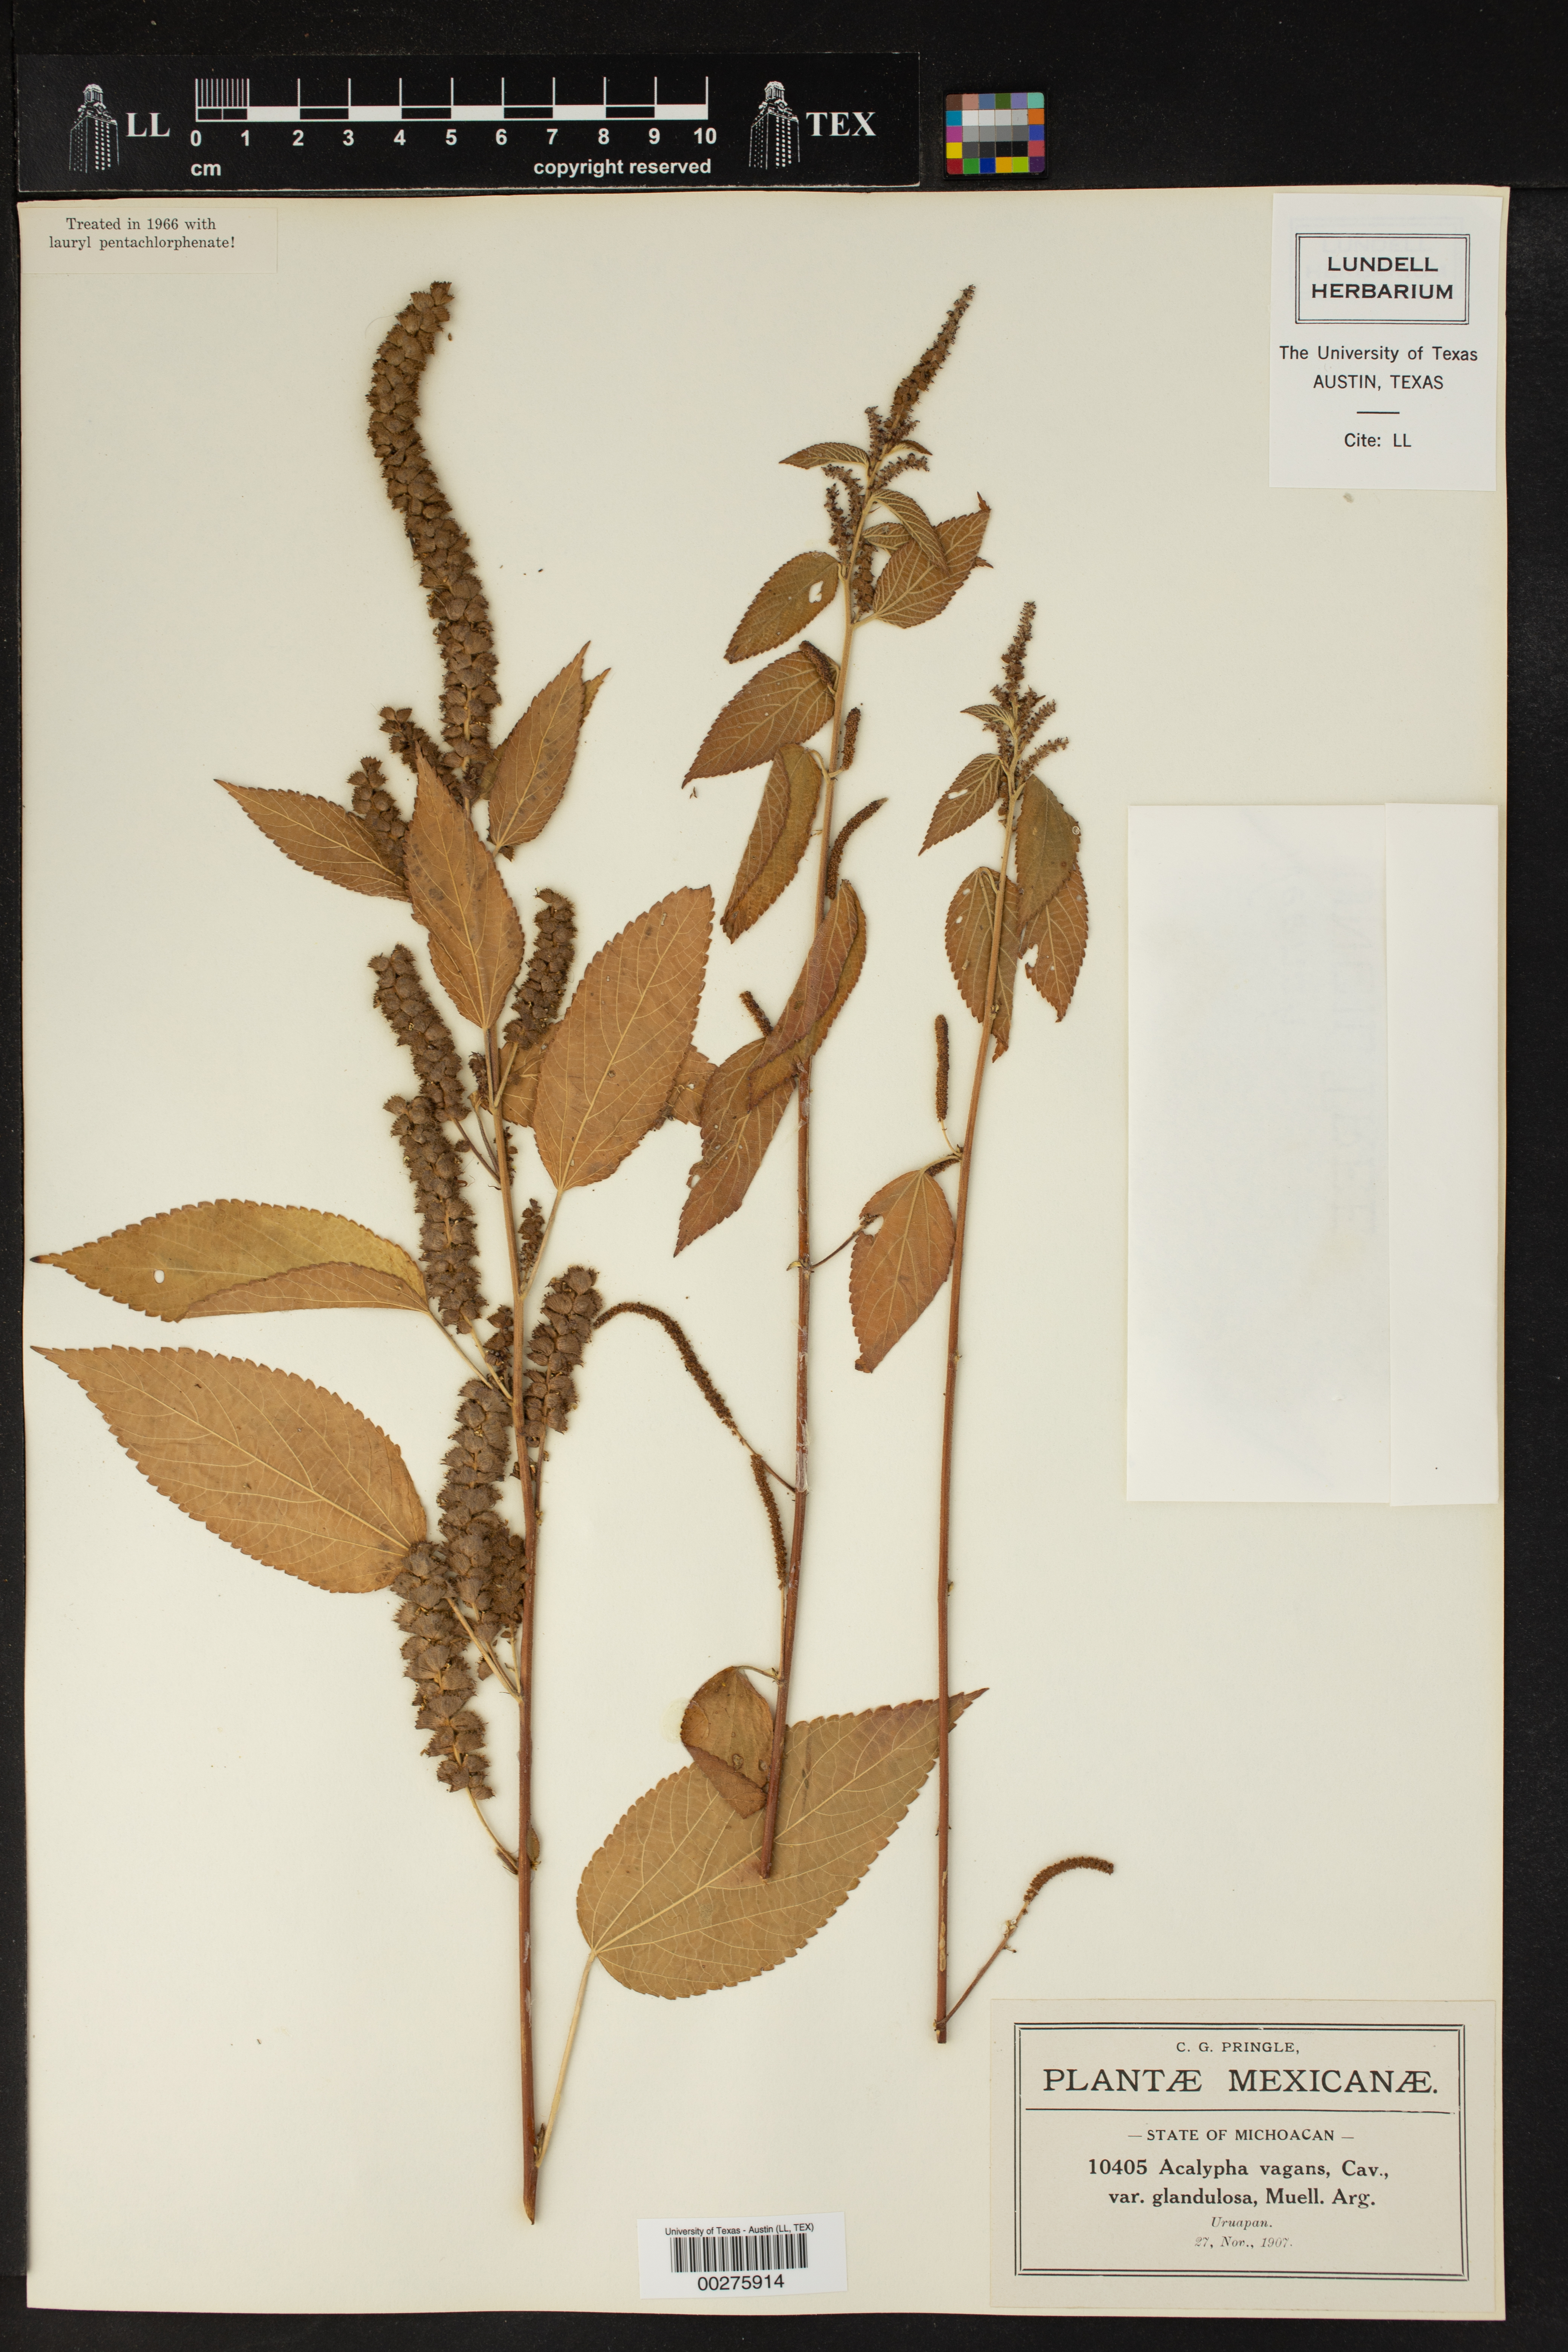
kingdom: Plantae
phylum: Tracheophyta
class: Magnoliopsida
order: Malpighiales
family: Euphorbiaceae
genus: Acalypha
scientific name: Acalypha subviscida
